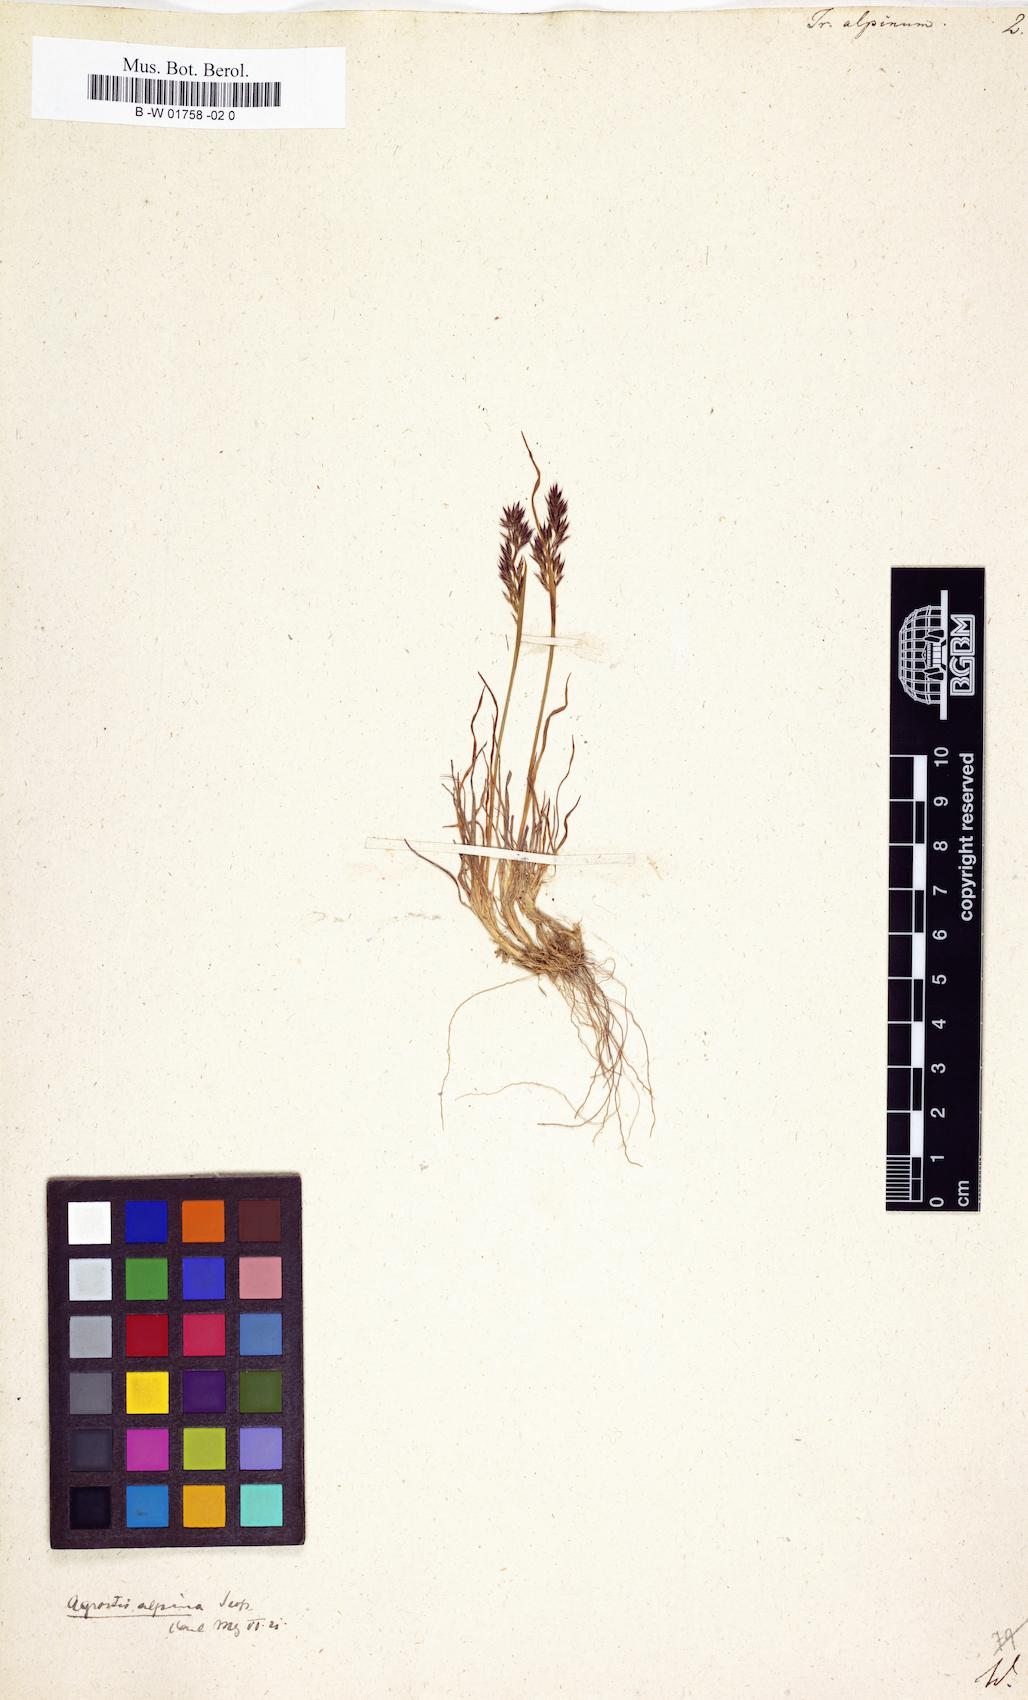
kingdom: Plantae
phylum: Tracheophyta
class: Liliopsida
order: Poales
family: Poaceae
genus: Agrostis
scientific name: Agrostis rupestris
